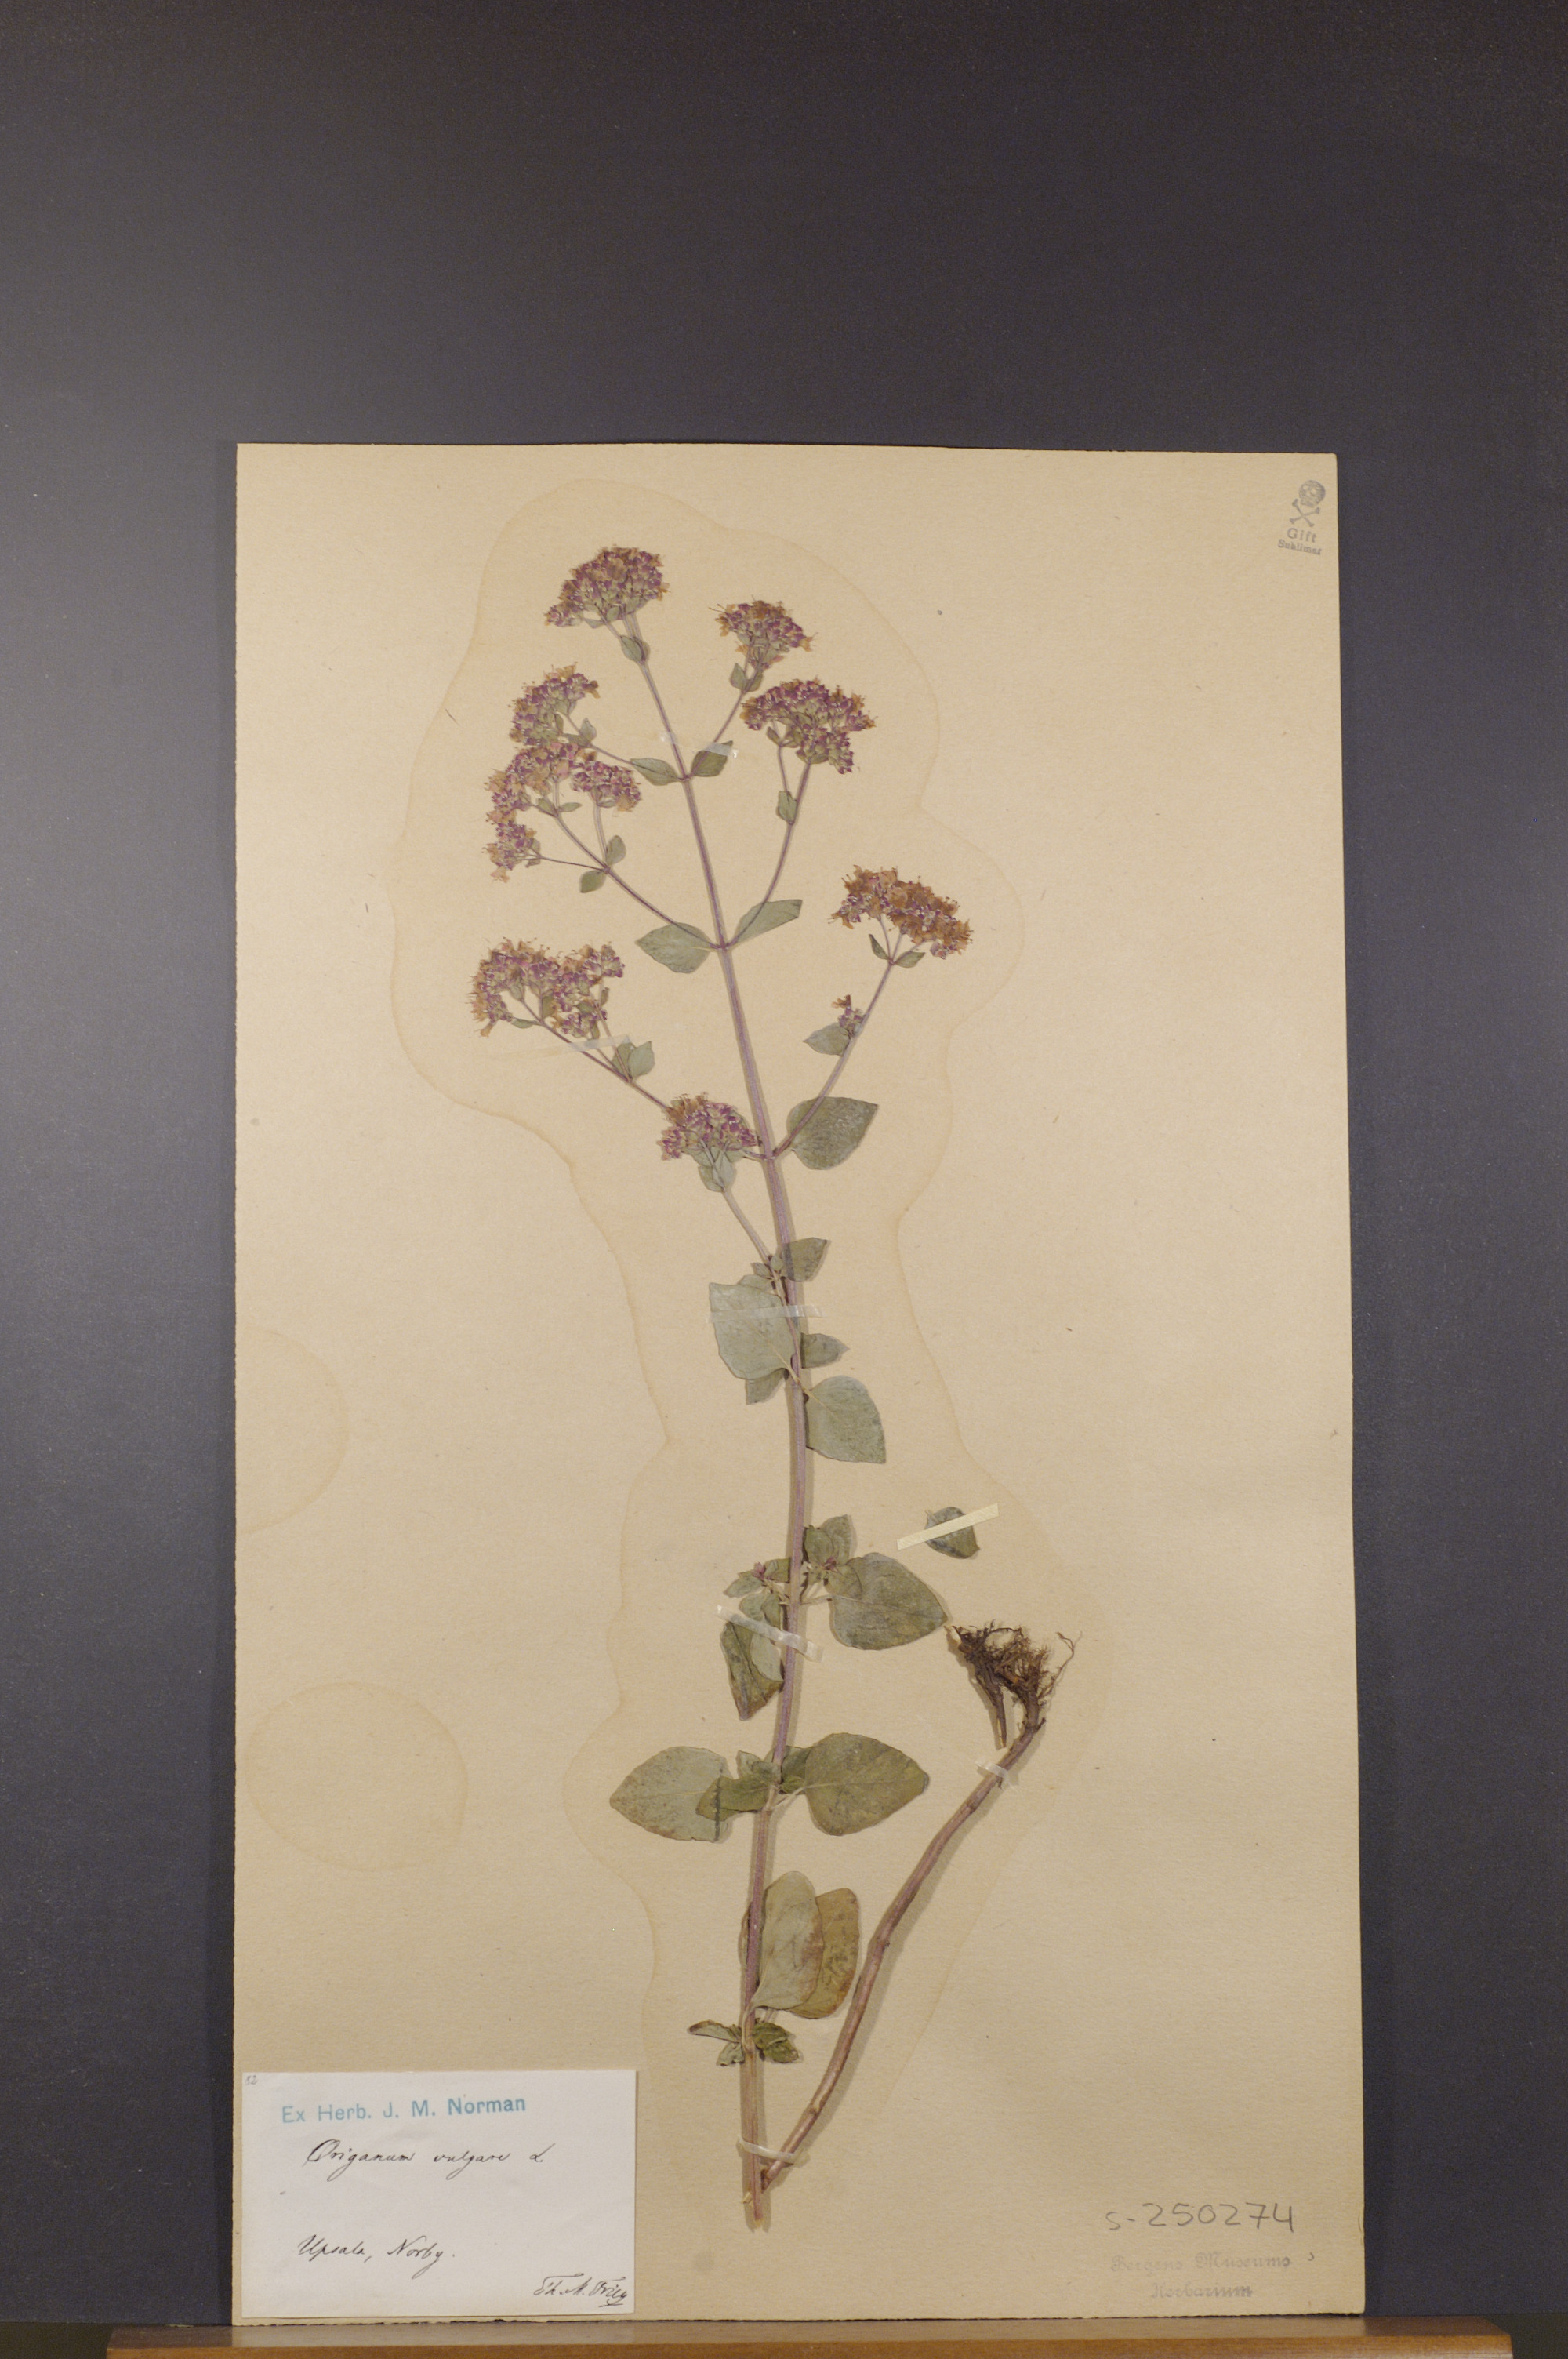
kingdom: Plantae
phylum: Tracheophyta
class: Magnoliopsida
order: Lamiales
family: Lamiaceae
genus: Origanum
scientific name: Origanum vulgare
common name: Wild marjoram
